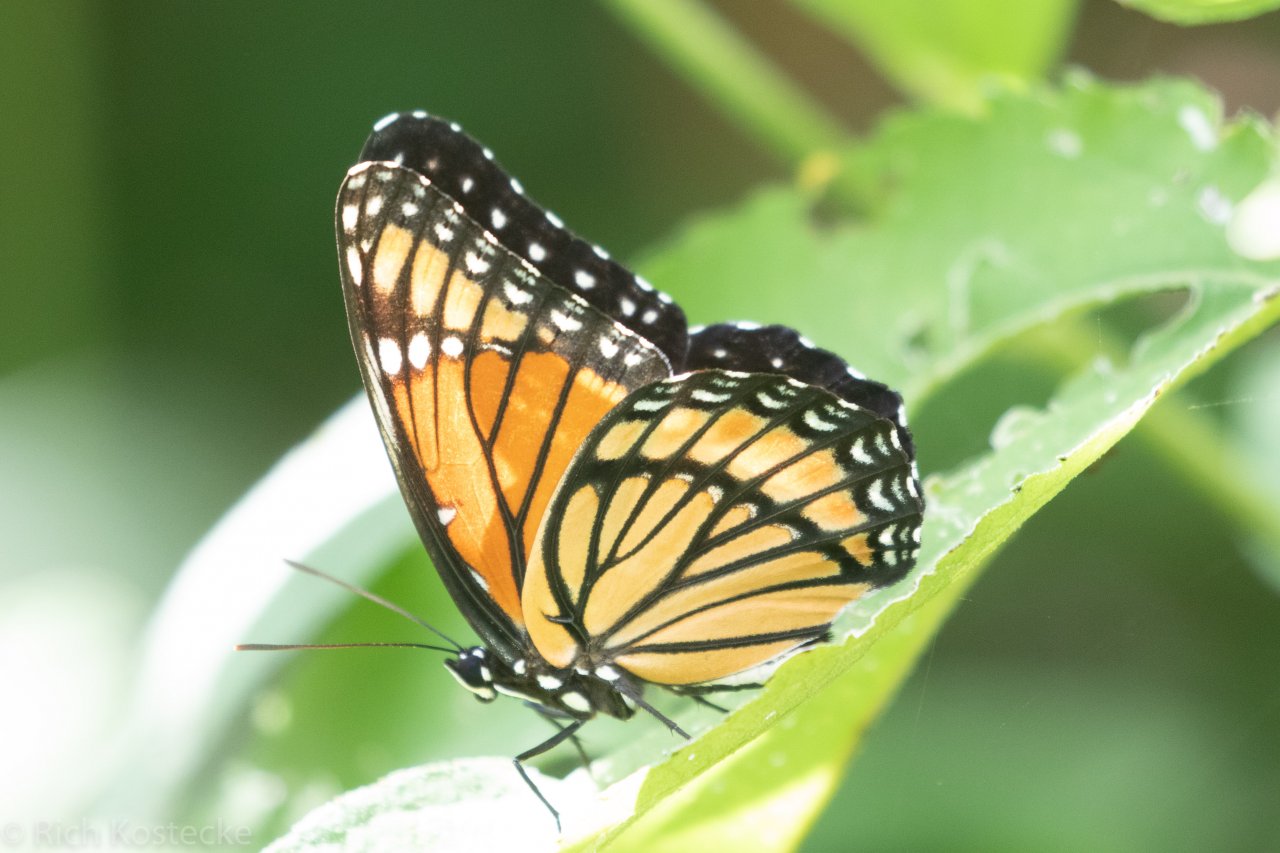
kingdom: Animalia
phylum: Arthropoda
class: Insecta
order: Lepidoptera
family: Nymphalidae
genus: Limenitis
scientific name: Limenitis archippus
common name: Viceroy
